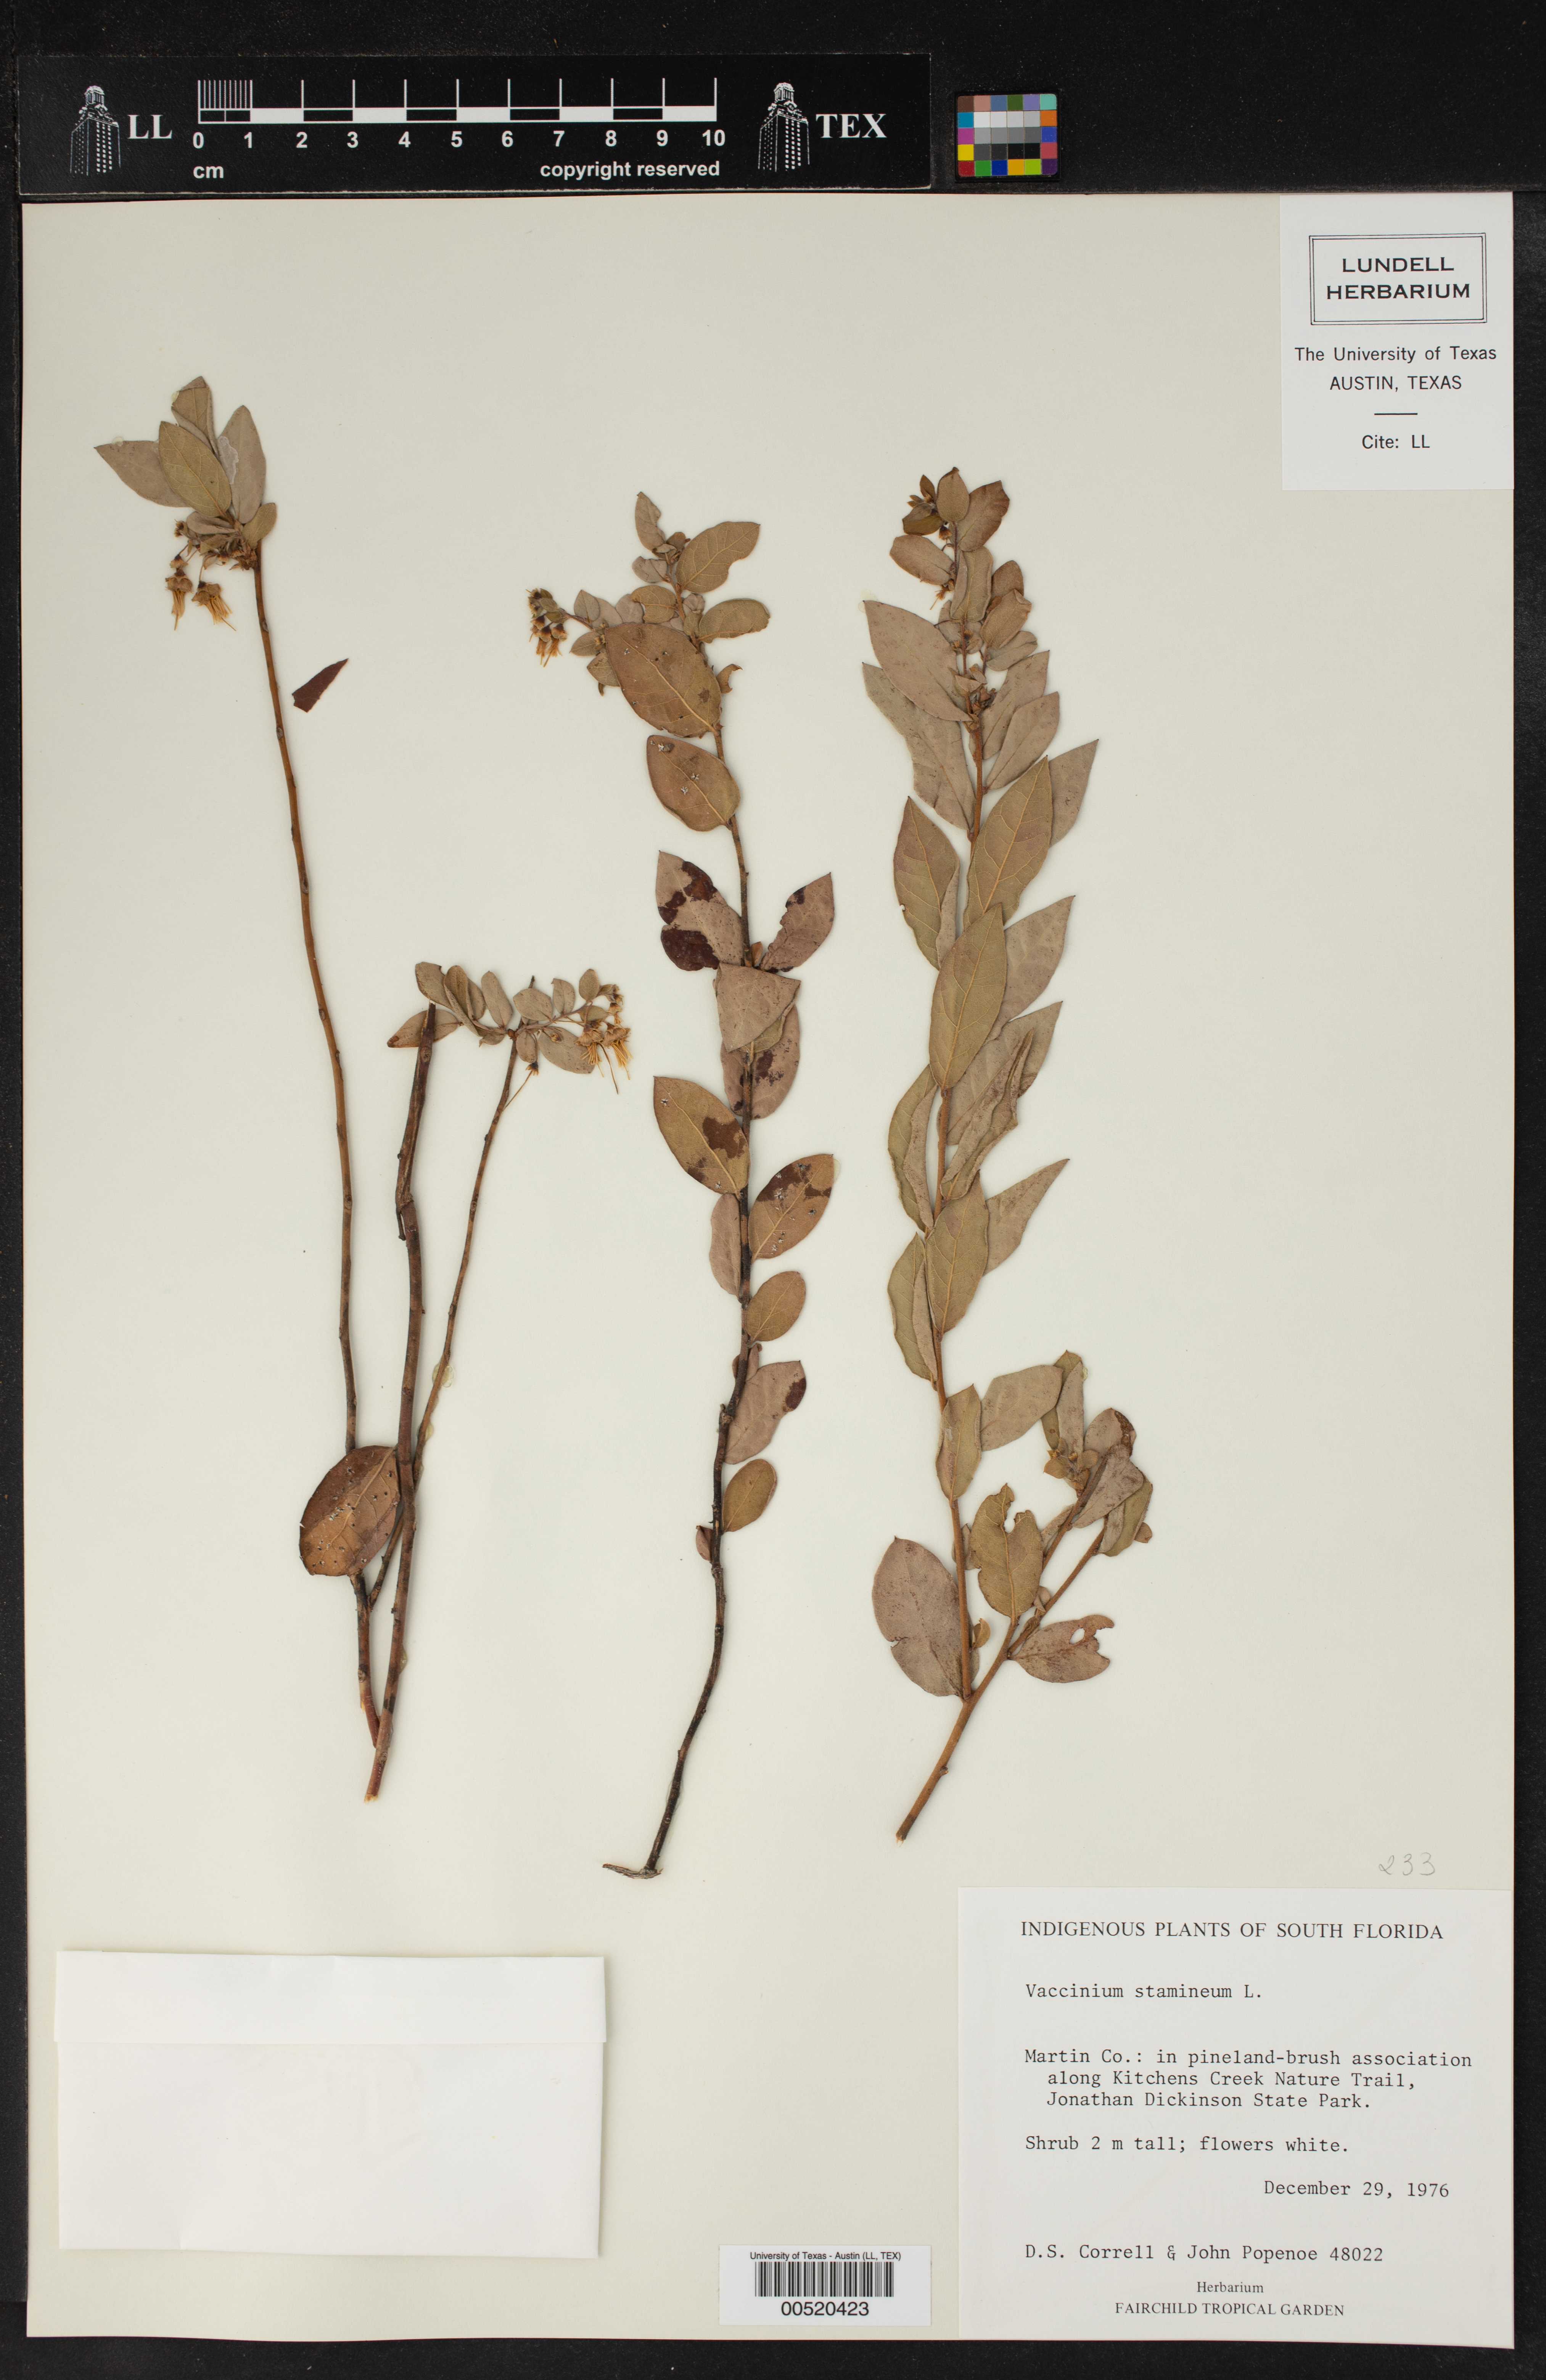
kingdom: Plantae
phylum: Tracheophyta
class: Magnoliopsida
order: Ericales
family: Ericaceae
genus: Vaccinium
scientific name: Vaccinium stamineum
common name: Deerberry
